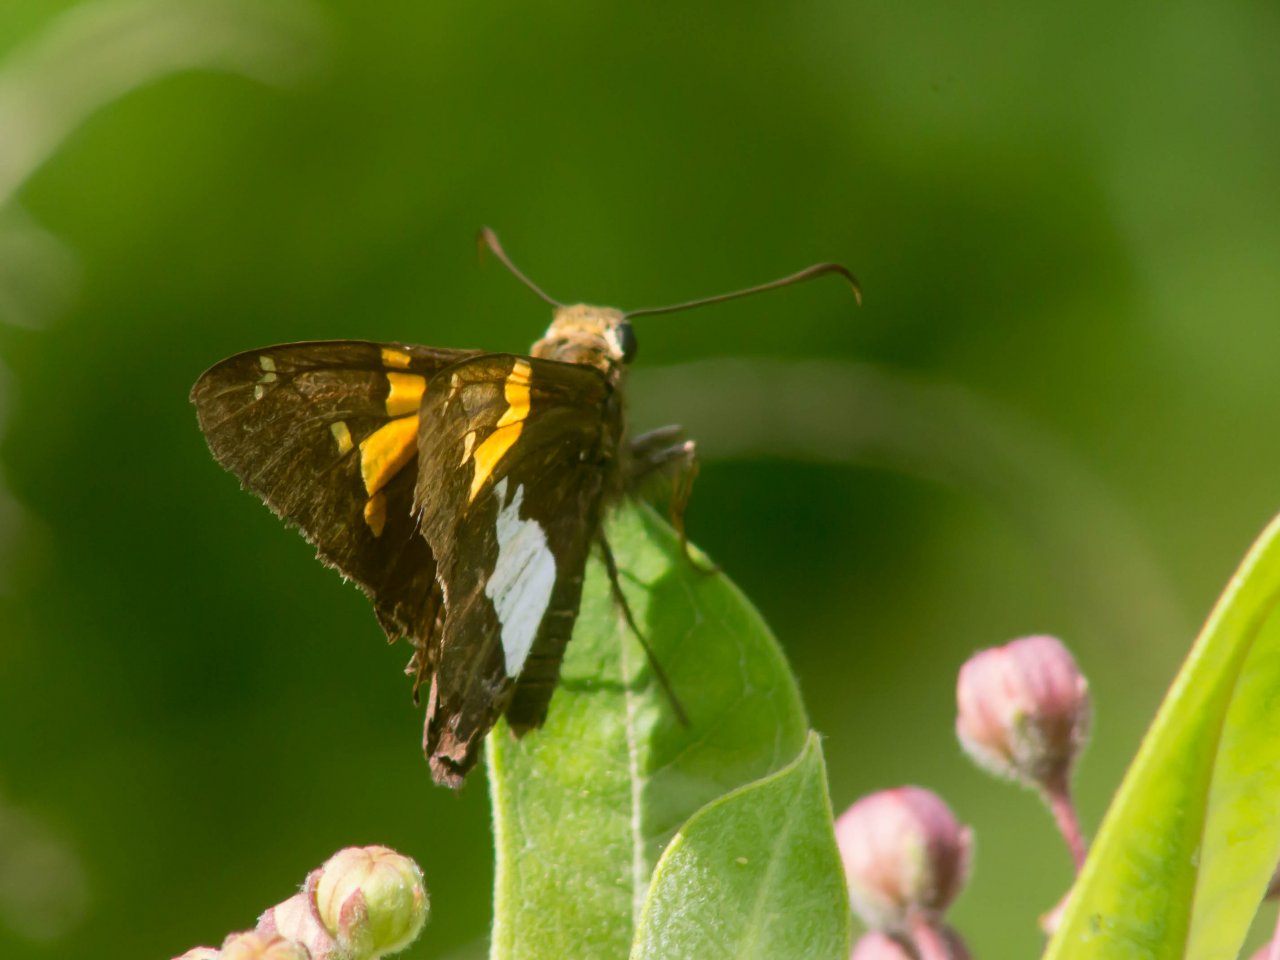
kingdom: Animalia
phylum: Arthropoda
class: Insecta
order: Lepidoptera
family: Hesperiidae
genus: Epargyreus
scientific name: Epargyreus clarus
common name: Silver-spotted Skipper
